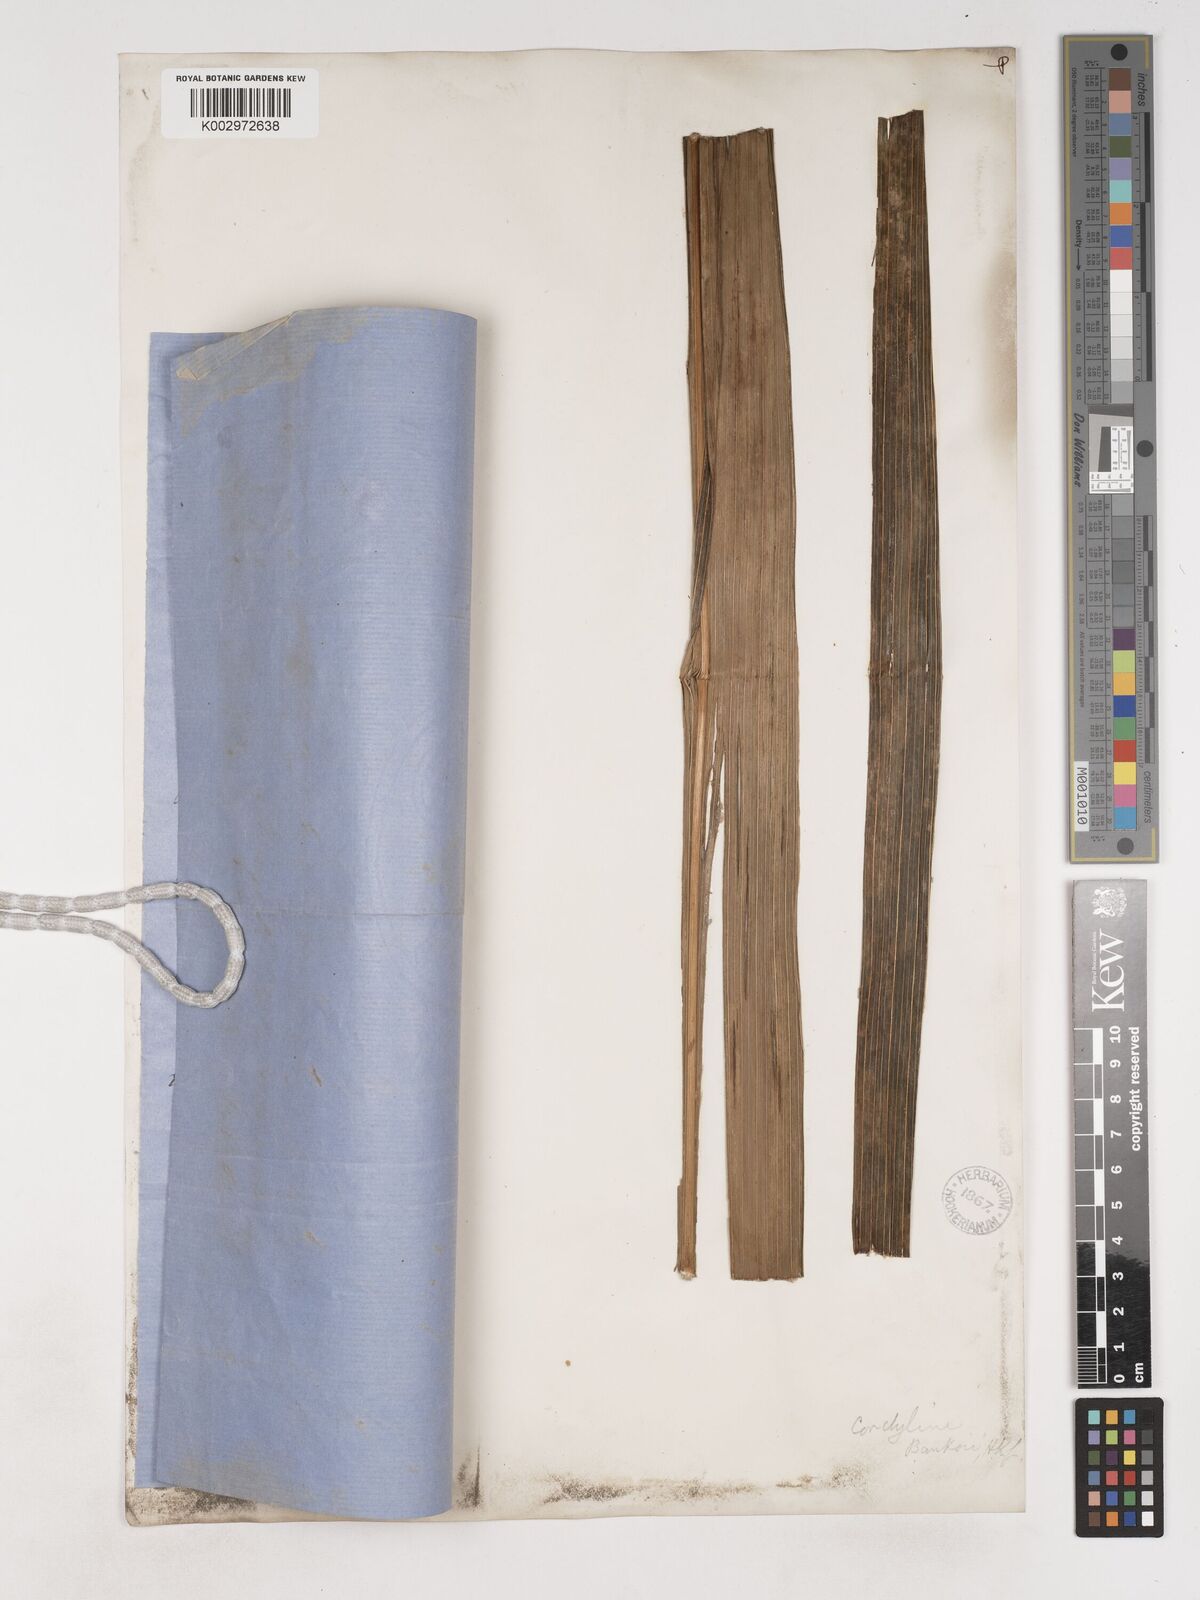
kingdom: Plantae
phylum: Tracheophyta
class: Liliopsida
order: Asparagales
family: Asparagaceae
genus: Cordyline
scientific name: Cordyline banksii
